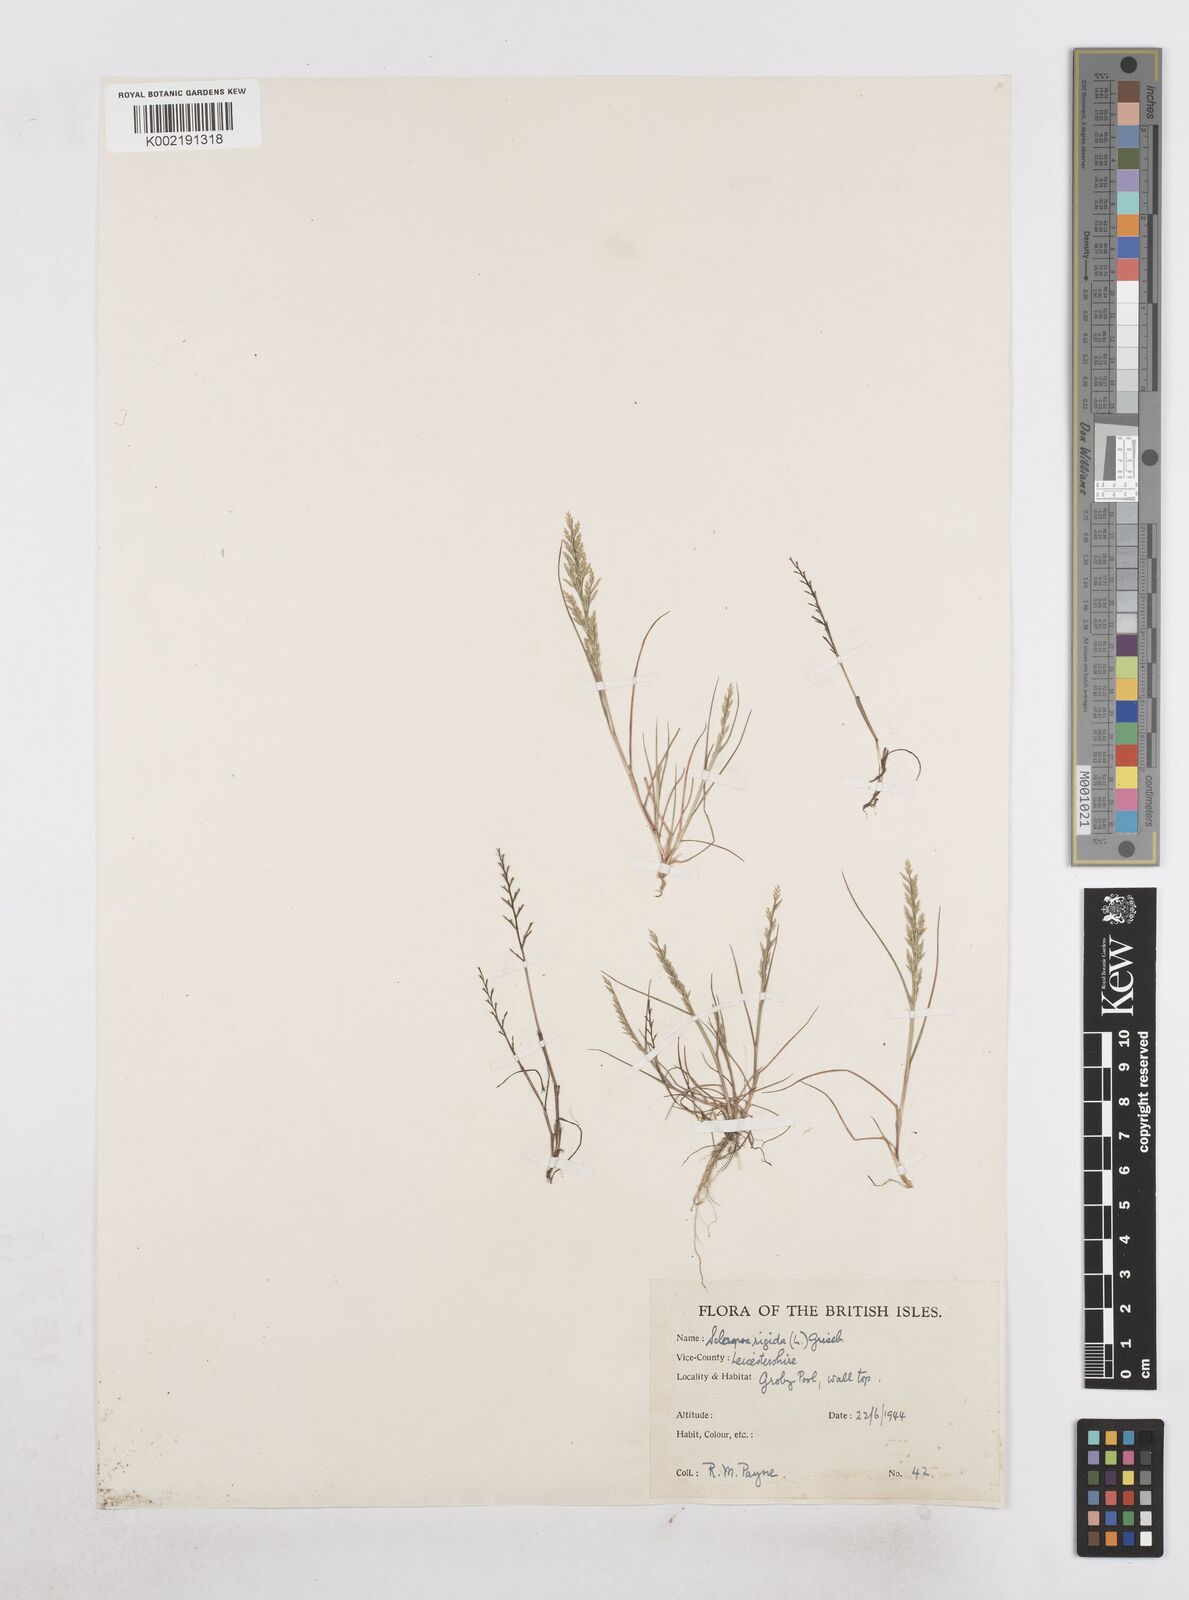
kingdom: Plantae
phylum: Tracheophyta
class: Liliopsida
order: Poales
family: Poaceae
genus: Catapodium
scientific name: Catapodium rigidum
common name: Fern-grass
